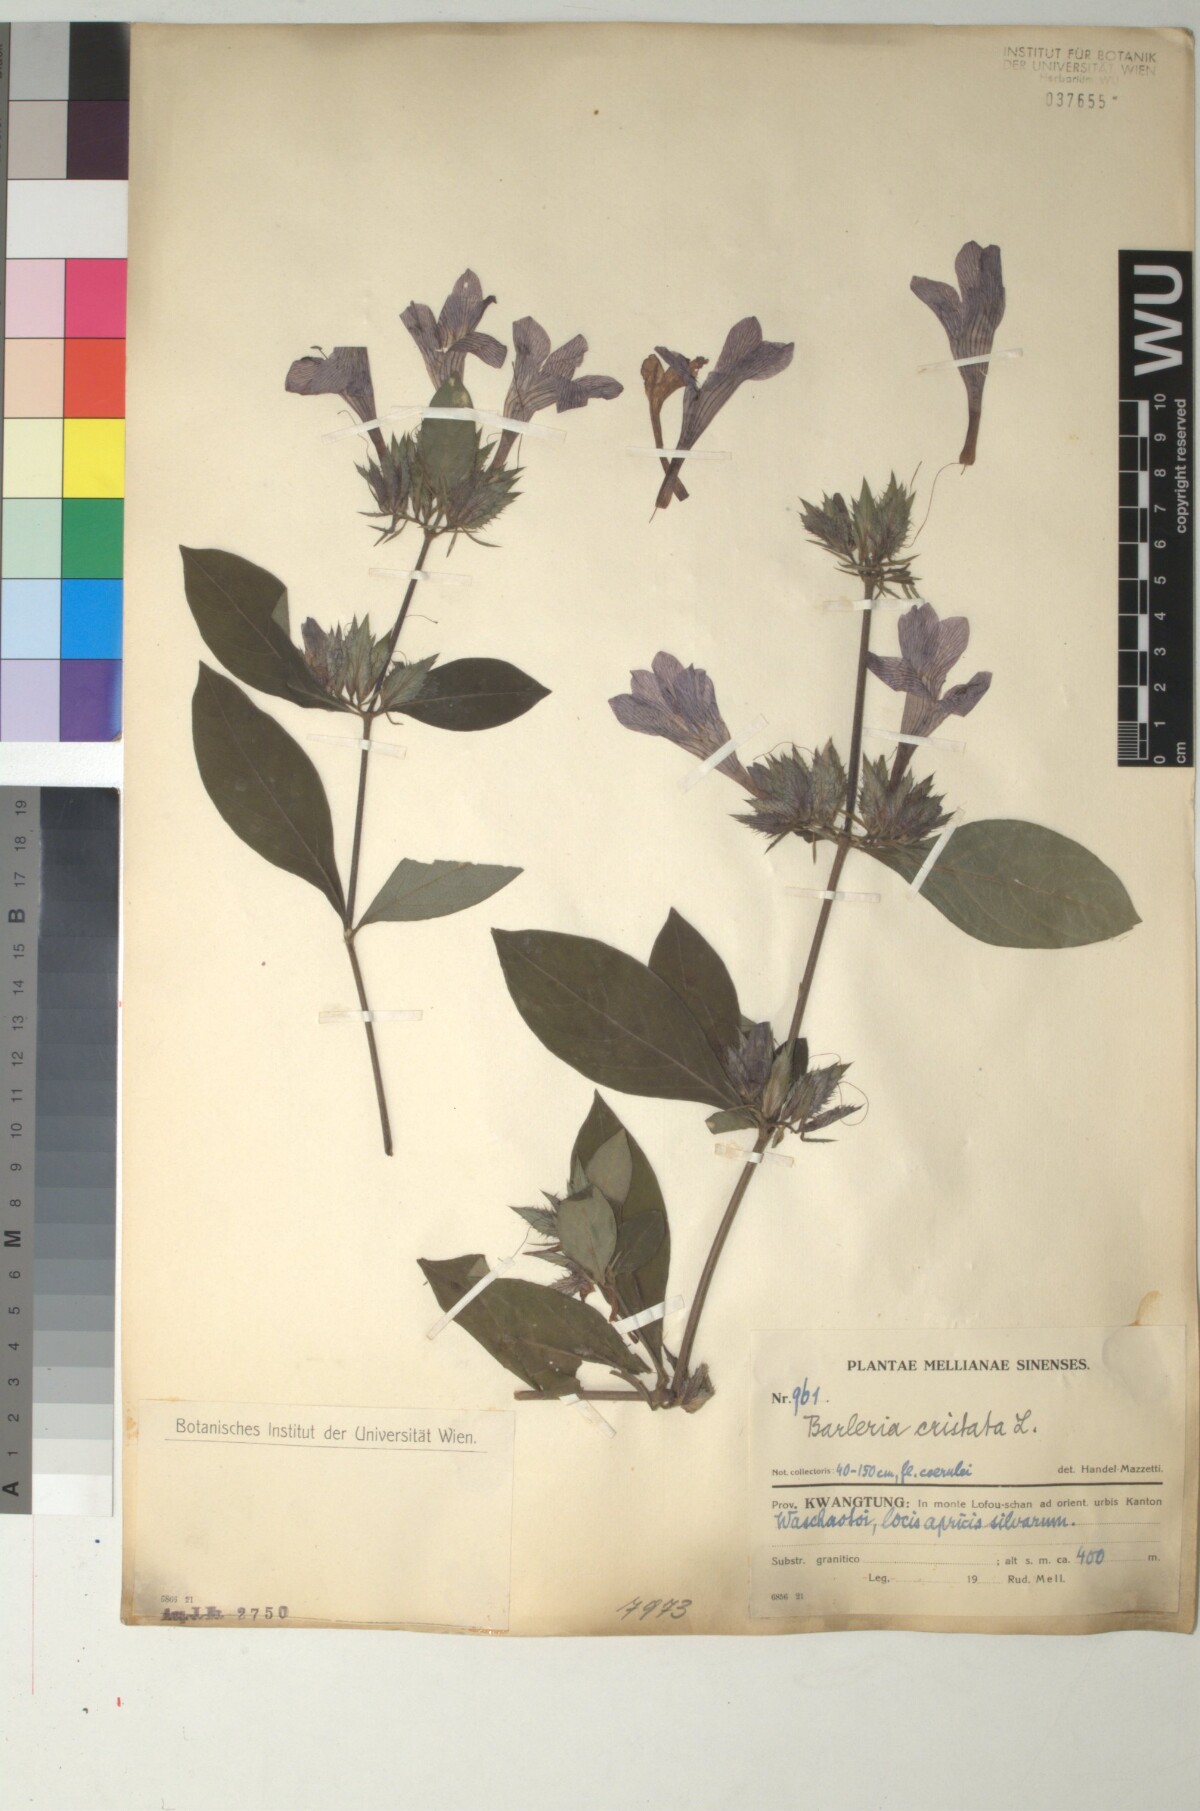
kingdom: Plantae
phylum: Tracheophyta
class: Magnoliopsida
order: Lamiales
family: Acanthaceae
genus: Barleria
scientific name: Barleria cristata
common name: Crested philippine violet
